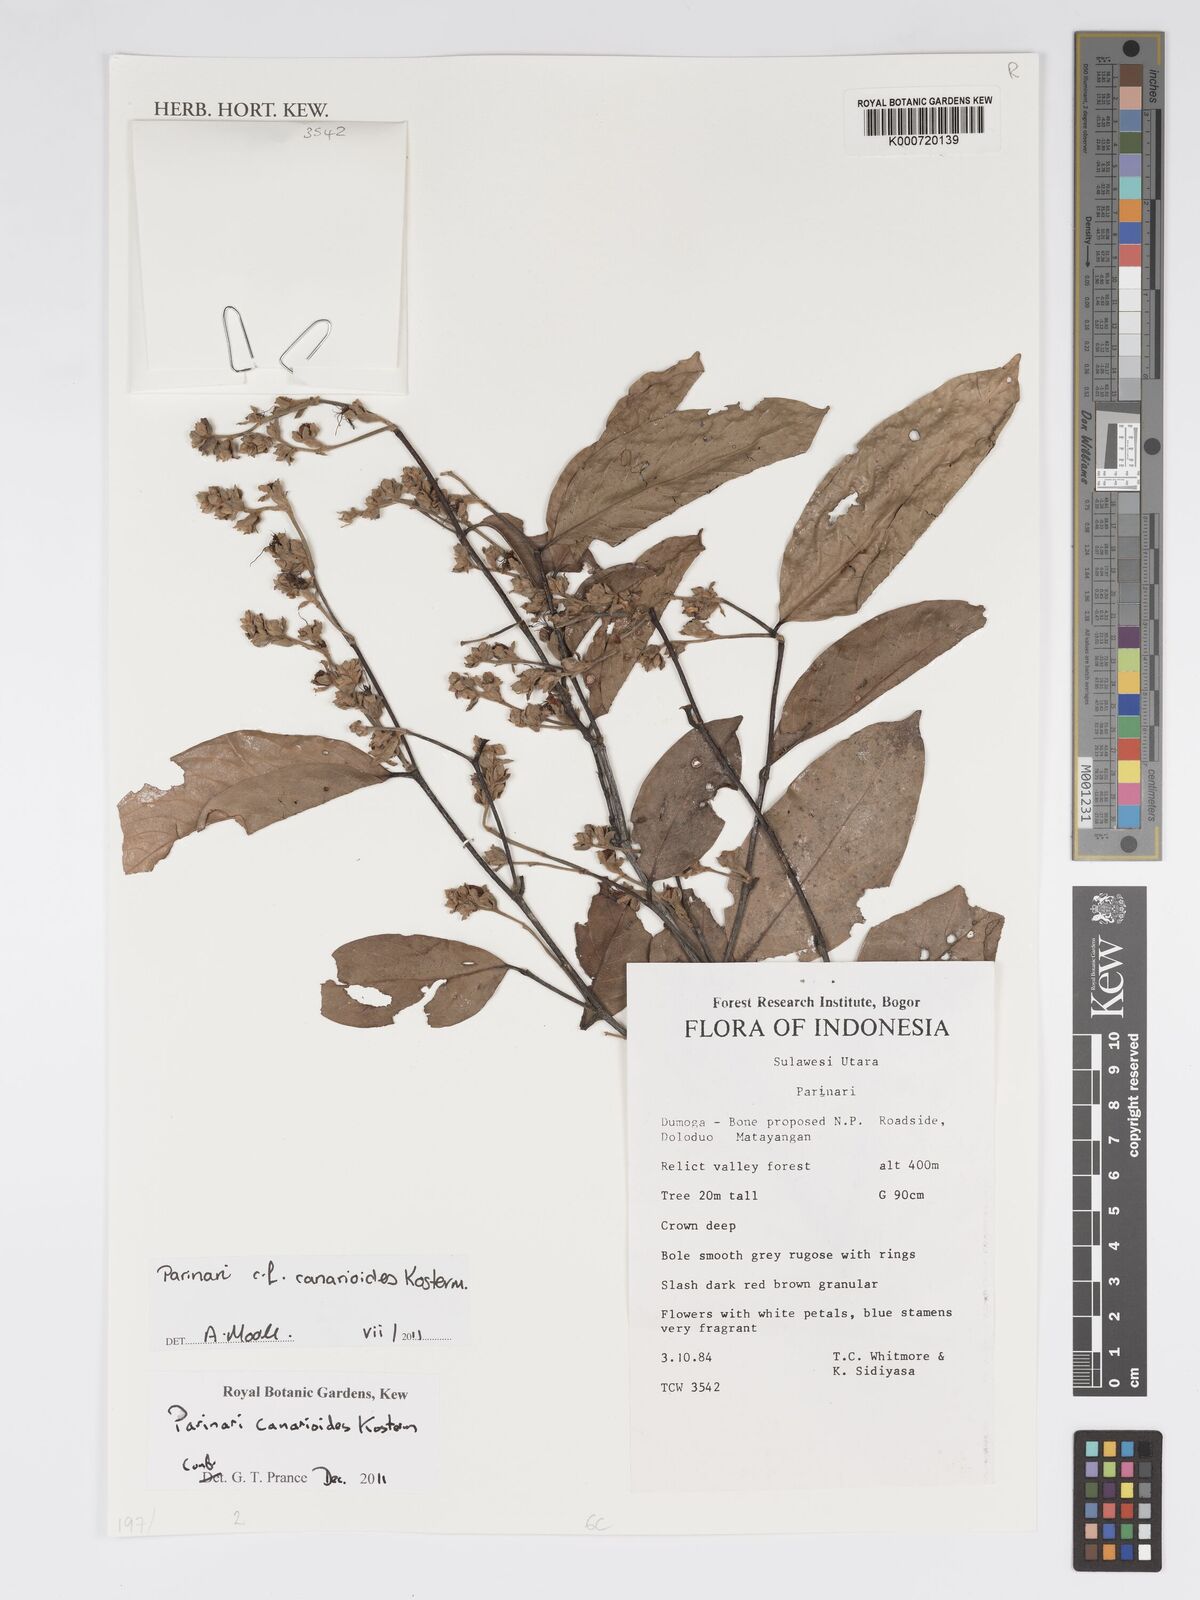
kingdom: Plantae
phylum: Tracheophyta
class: Magnoliopsida
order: Malpighiales
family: Chrysobalanaceae
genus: Parinari
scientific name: Parinari canarioides
